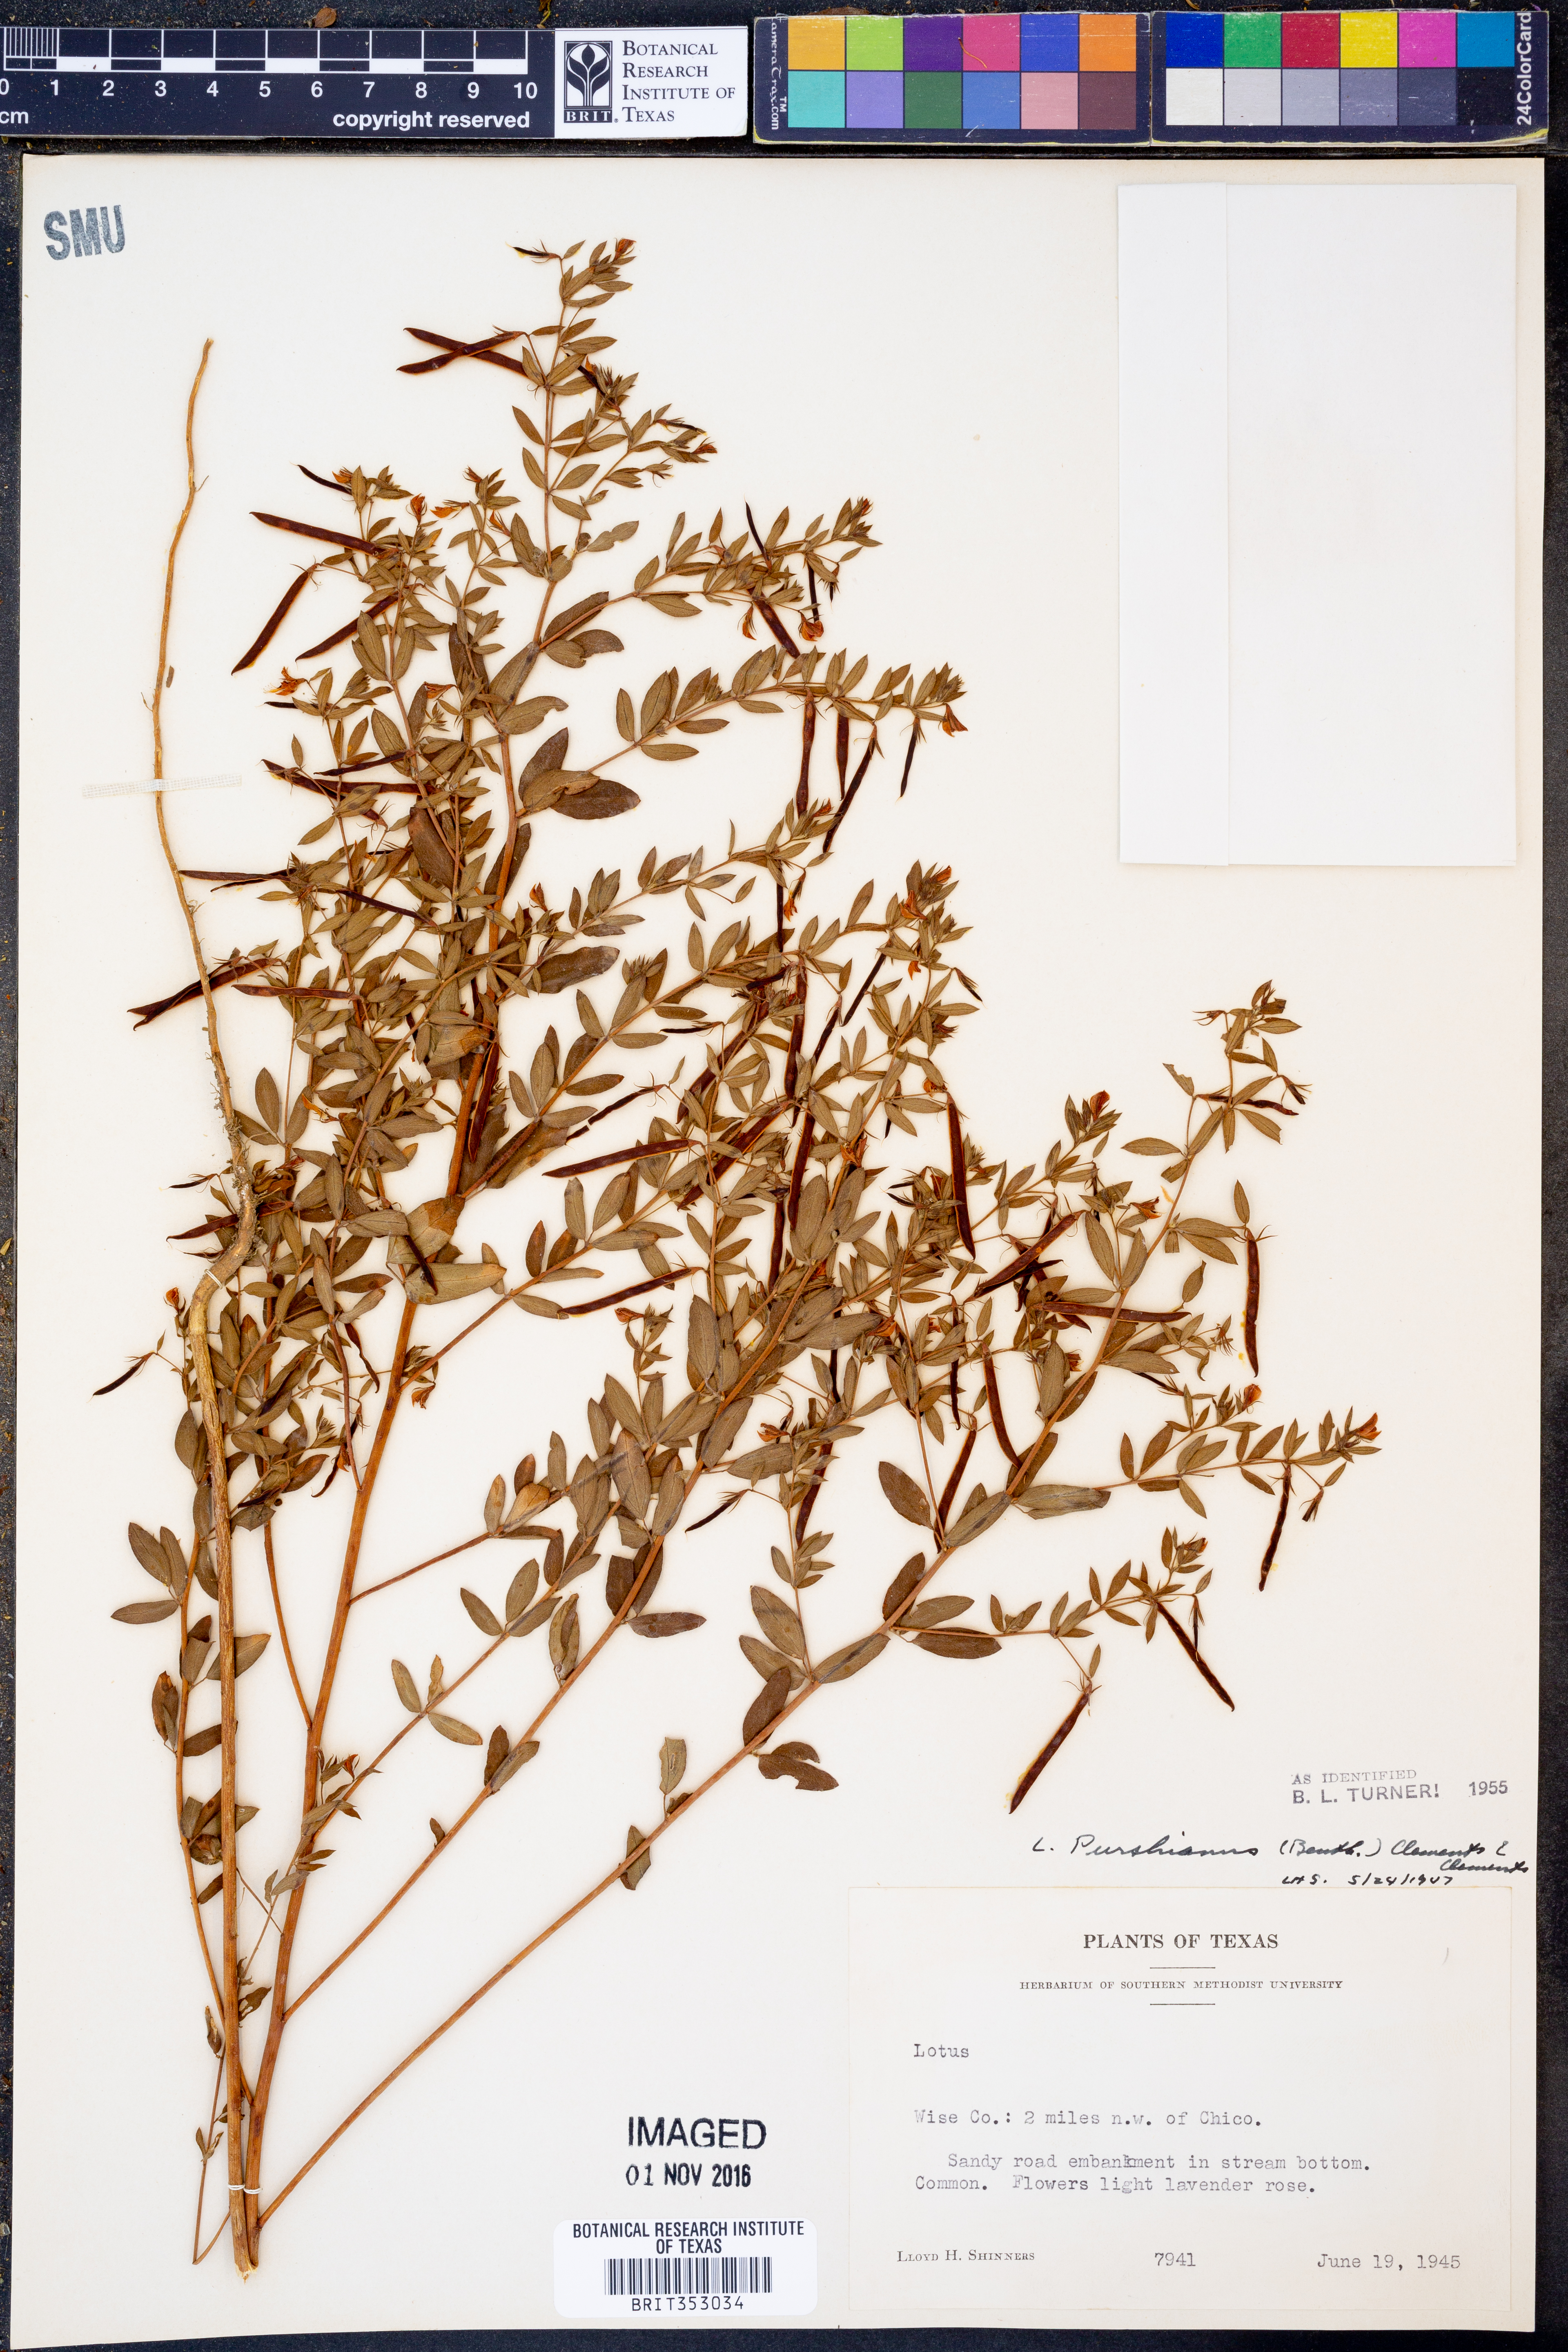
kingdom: Plantae
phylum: Tracheophyta
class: Magnoliopsida
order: Fabales
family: Fabaceae
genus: Acmispon
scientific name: Acmispon americanus
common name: American bird's-foot trefoil
